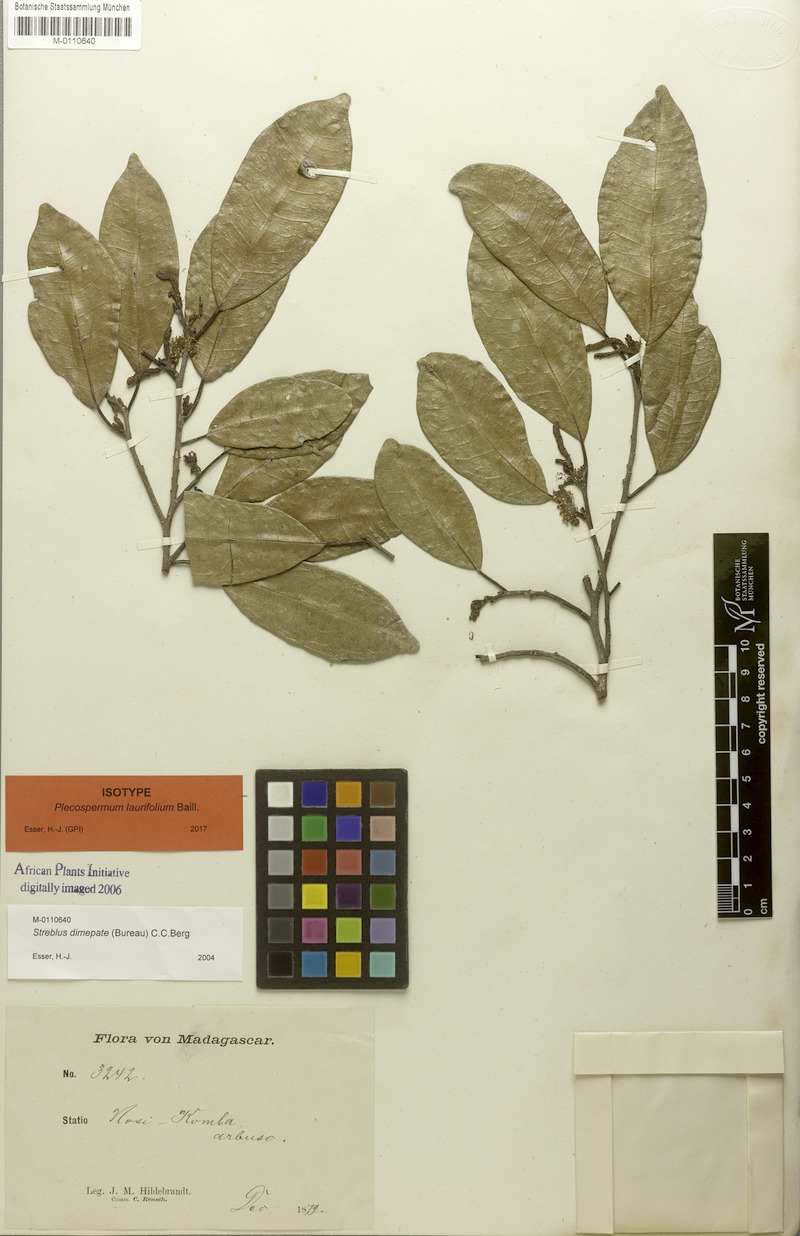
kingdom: Plantae
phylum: Tracheophyta
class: Magnoliopsida
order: Rosales
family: Moraceae
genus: Ampalis
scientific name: Ampalis dimepate
